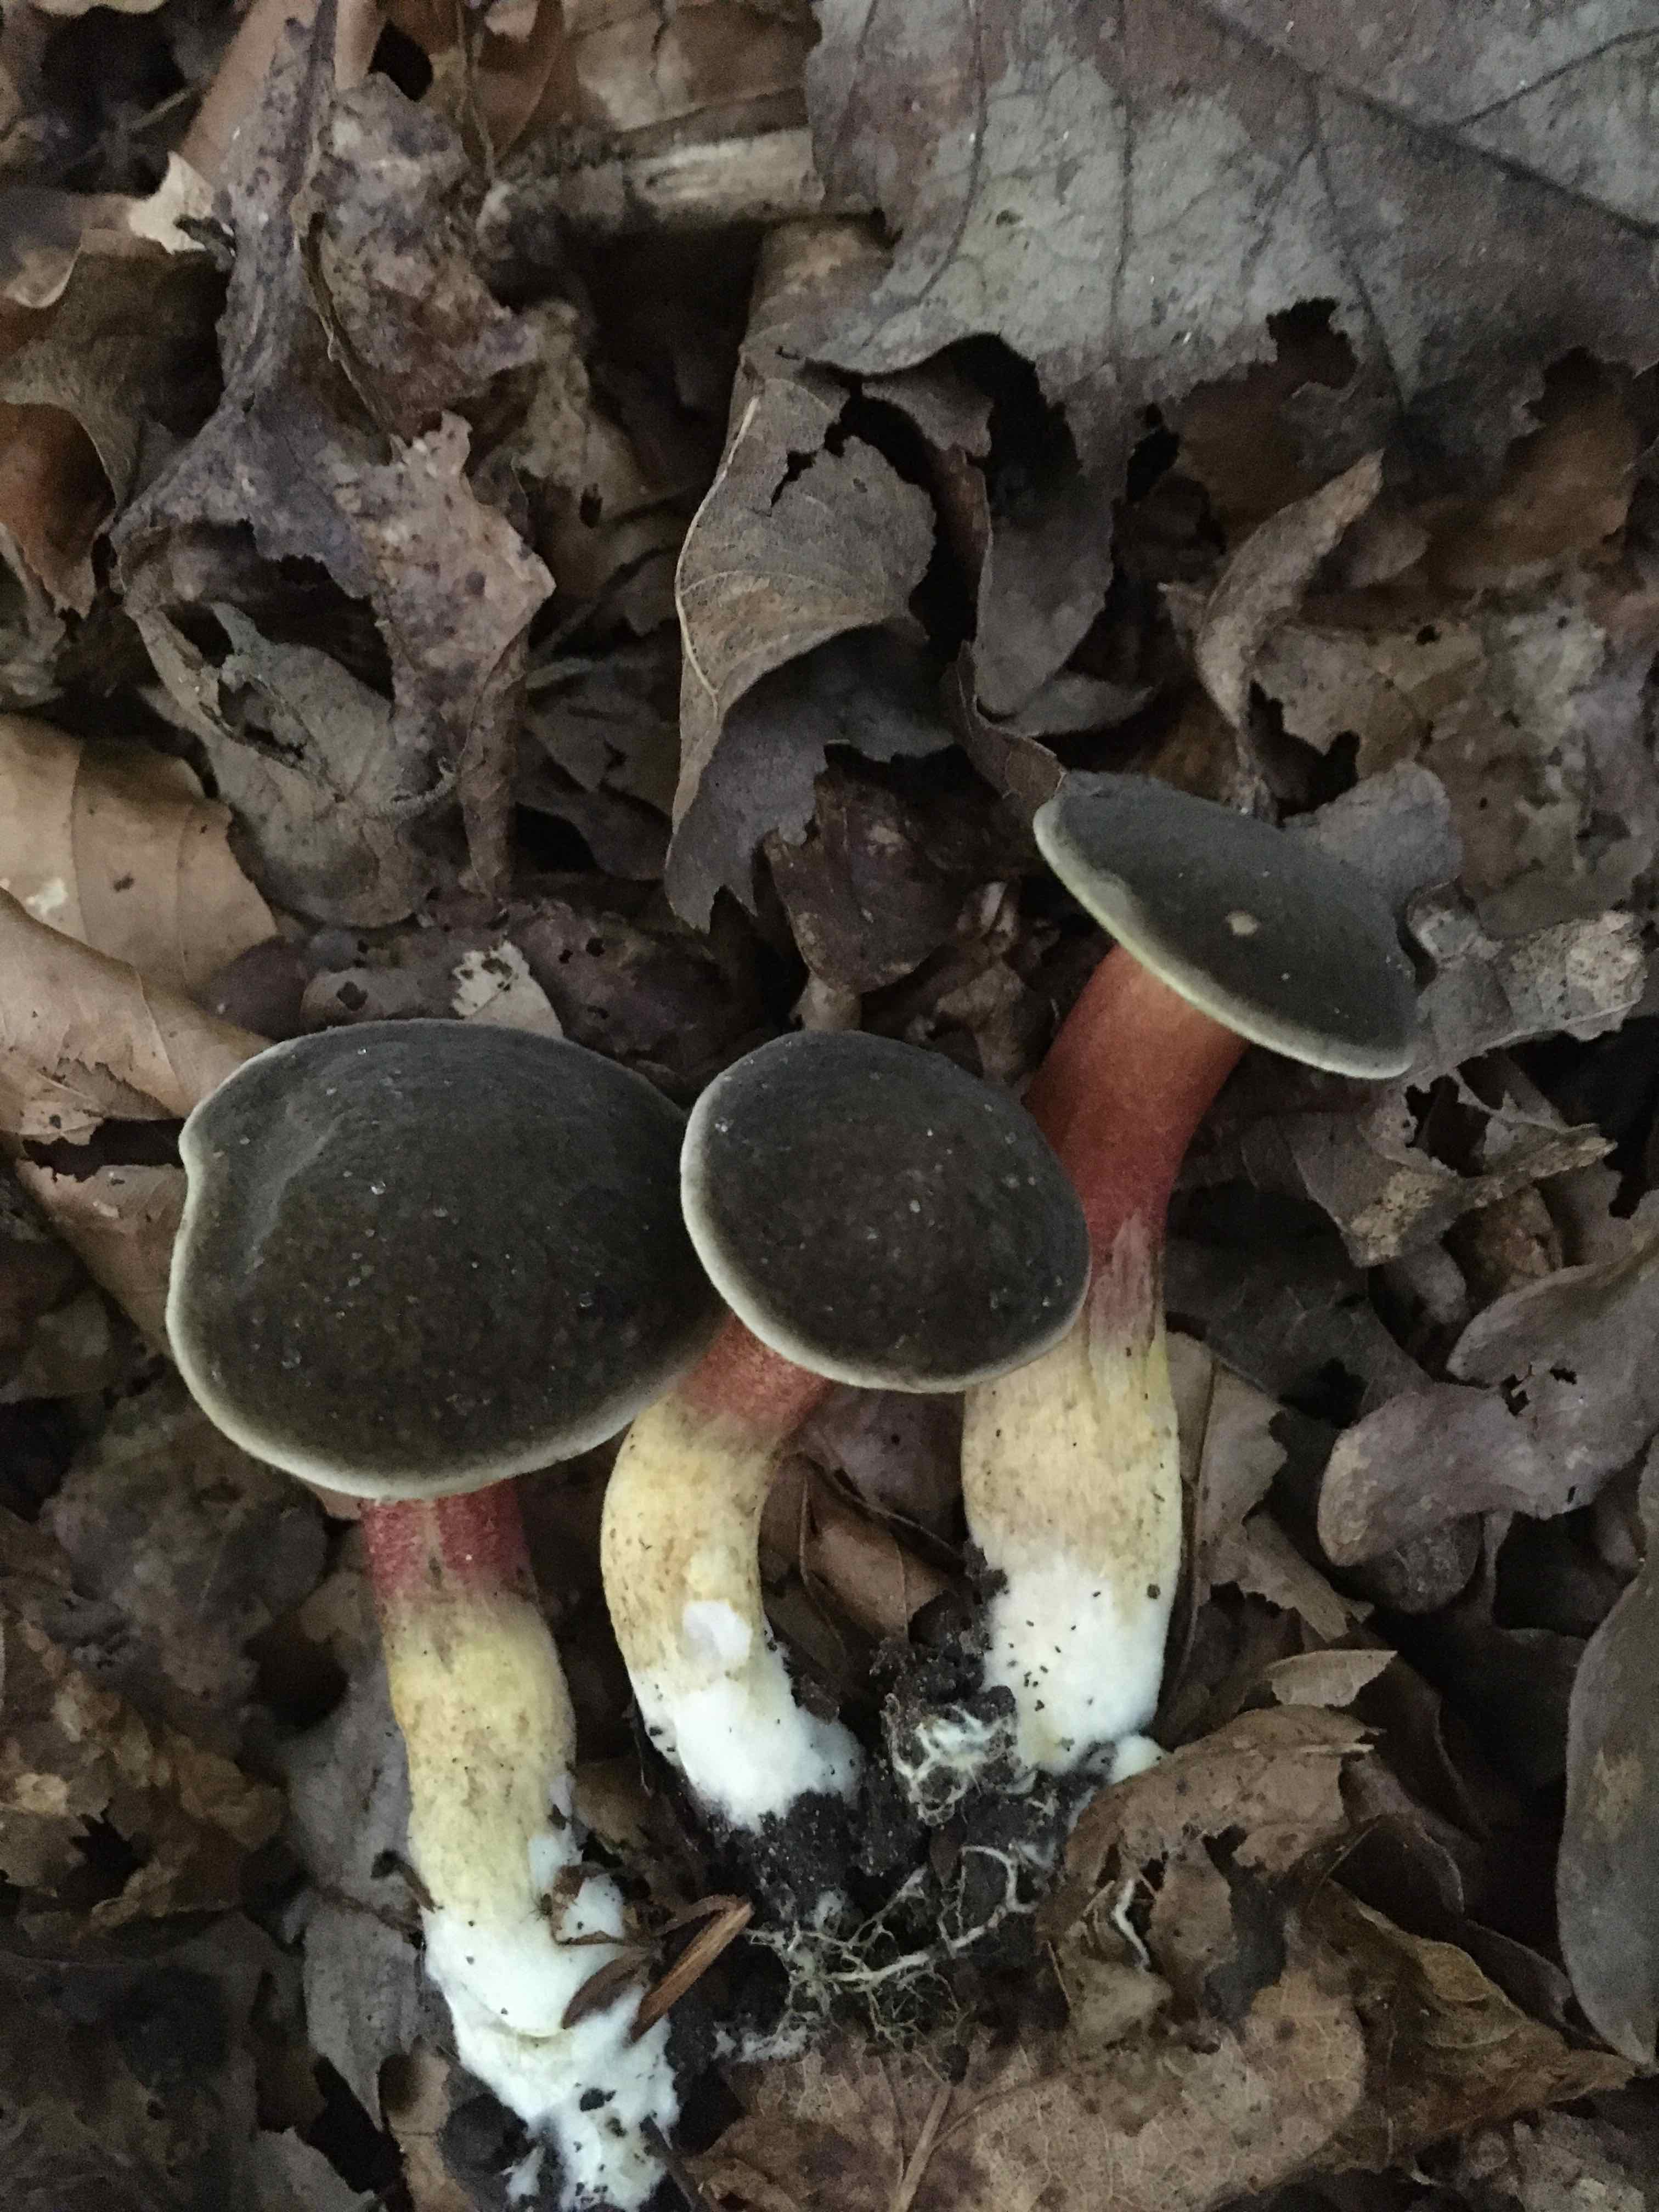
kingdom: Fungi
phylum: Basidiomycota
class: Agaricomycetes
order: Boletales
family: Boletaceae
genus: Xerocomellus
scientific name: Xerocomellus
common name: dværgrørhat
